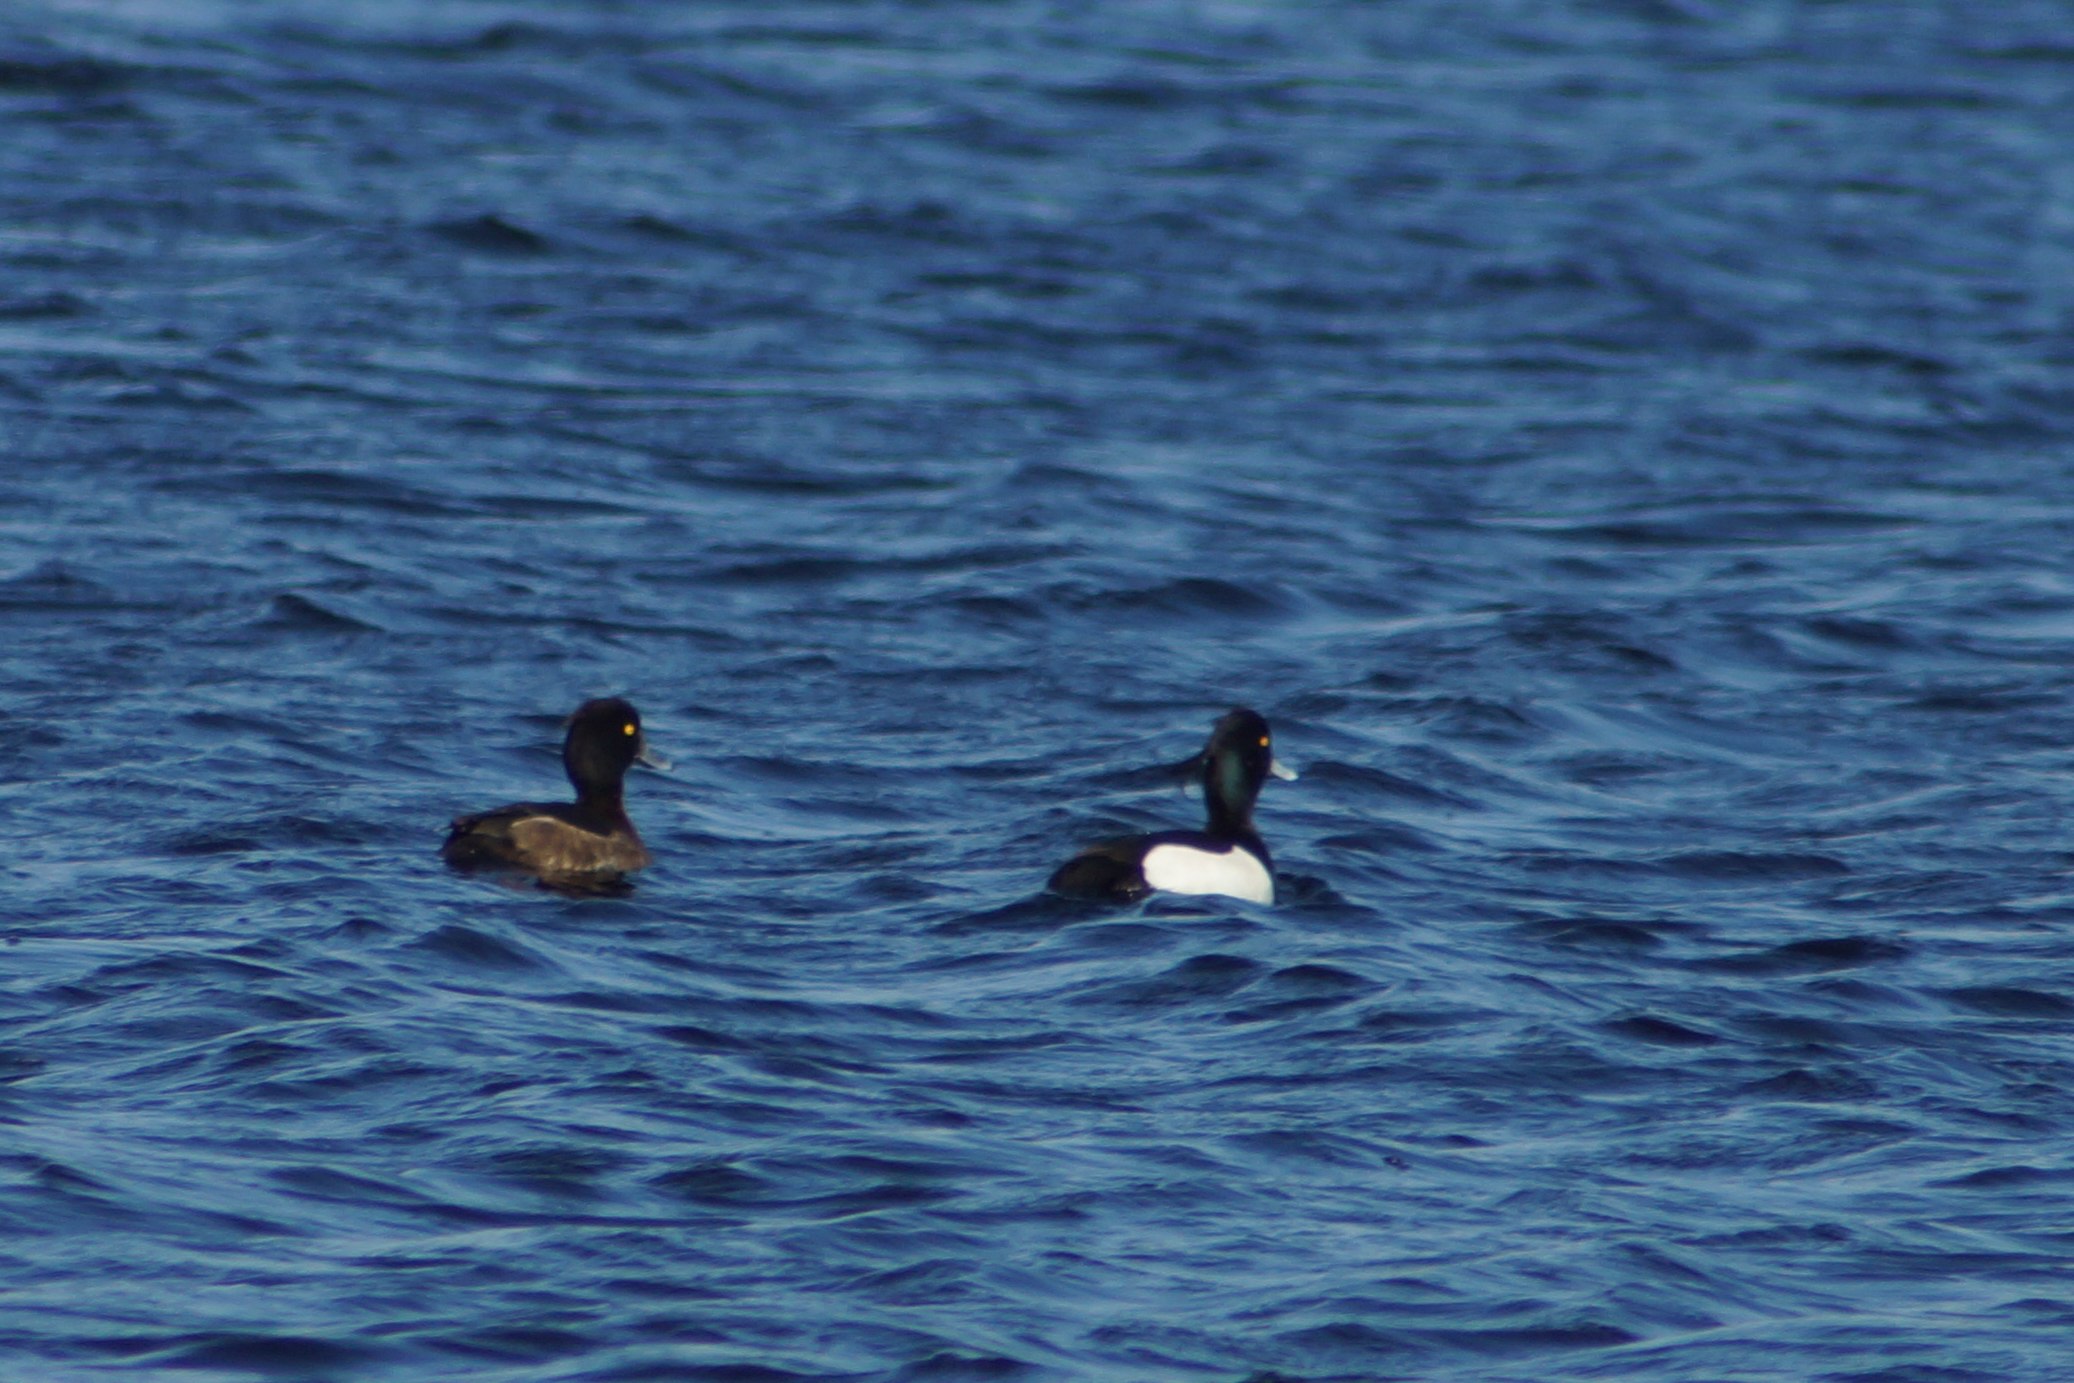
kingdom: Animalia
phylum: Chordata
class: Aves
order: Anseriformes
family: Anatidae
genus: Aythya
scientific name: Aythya fuligula
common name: Troldand
